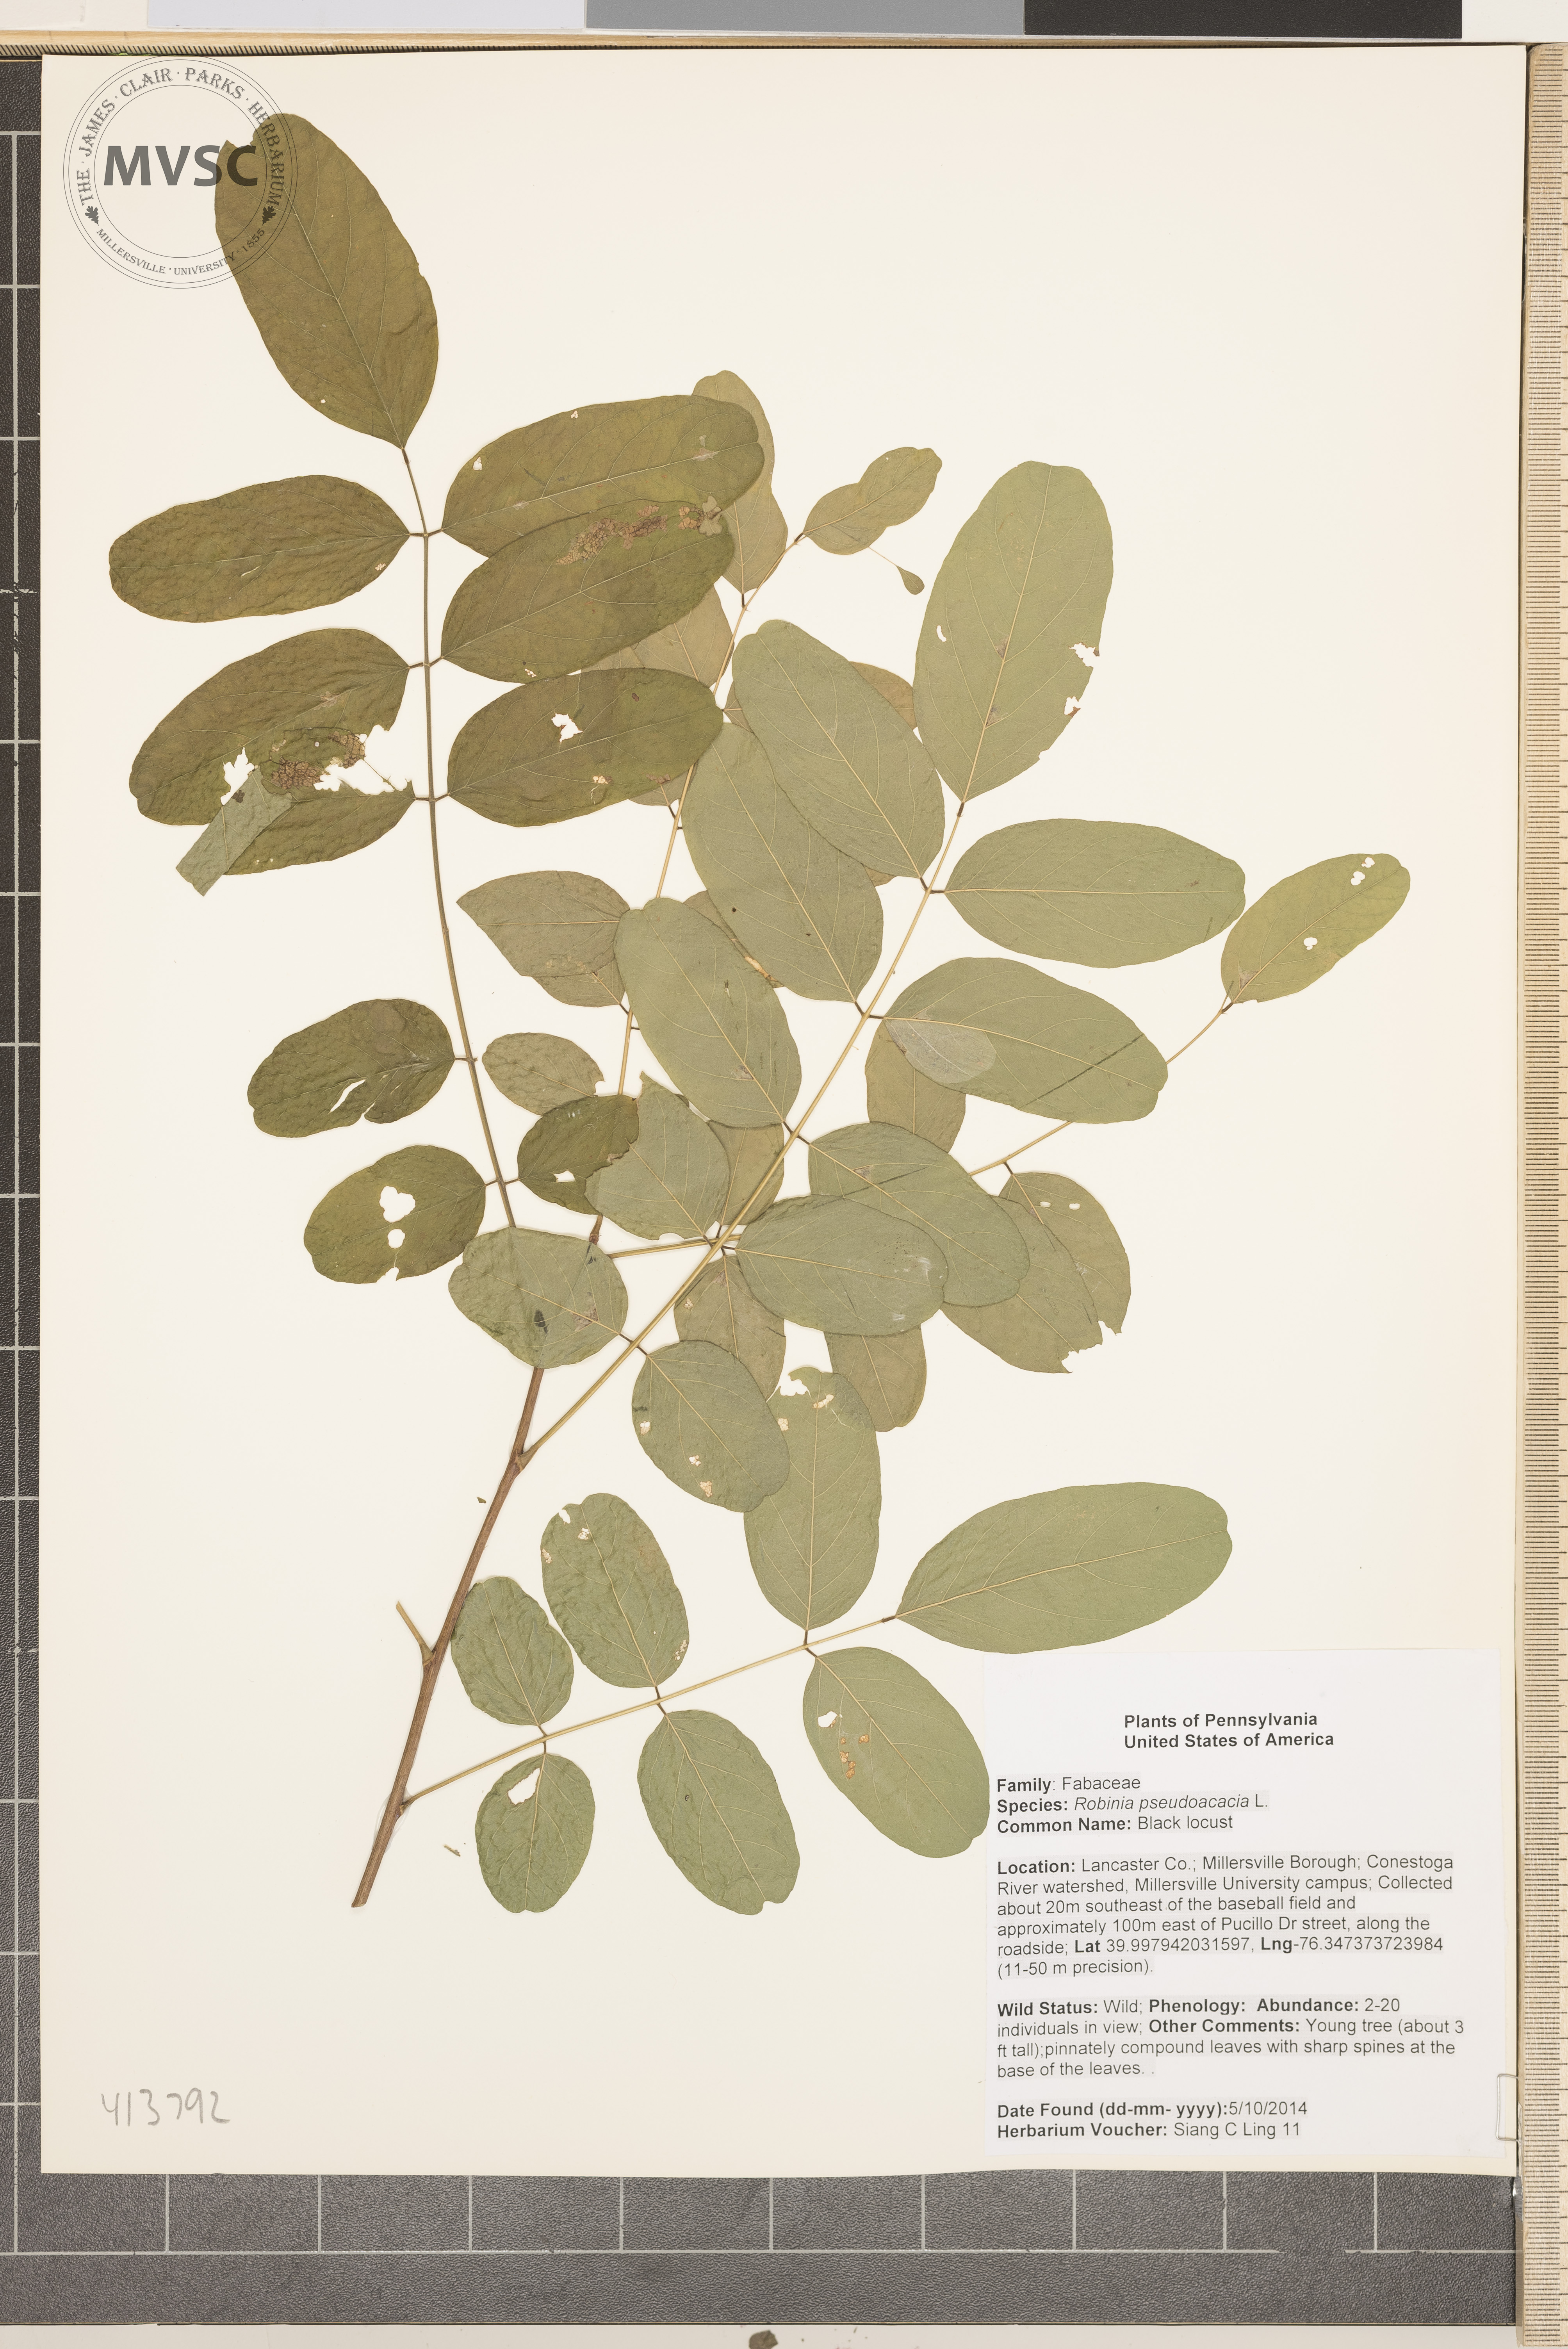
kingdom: Plantae
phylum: Tracheophyta
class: Magnoliopsida
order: Fabales
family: Fabaceae
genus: Robinia
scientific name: Robinia pseudoacacia
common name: Black locust
